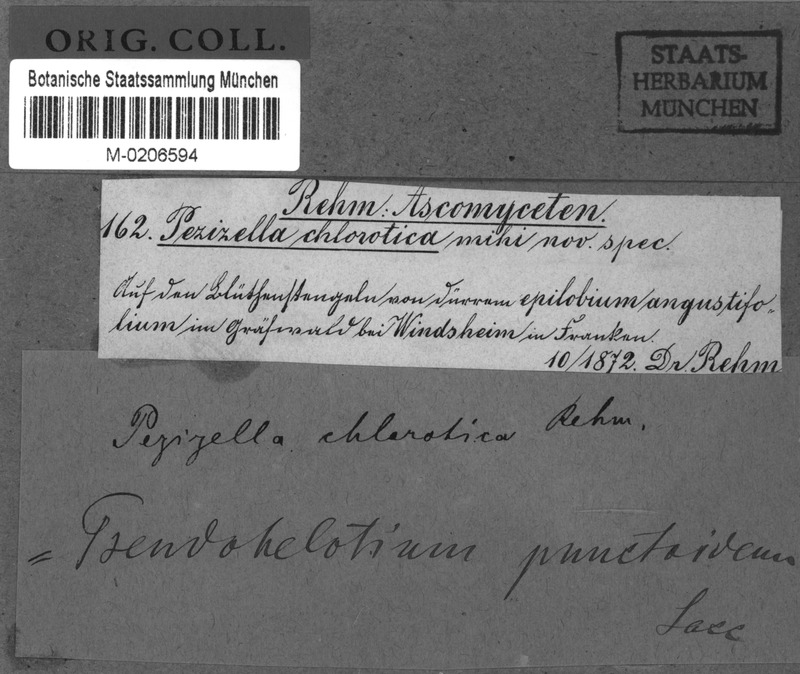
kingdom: Fungi
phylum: Ascomycota
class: Leotiomycetes
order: Helotiales
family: Pezizellaceae
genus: Pezizella
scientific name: Pezizella punctoidea
